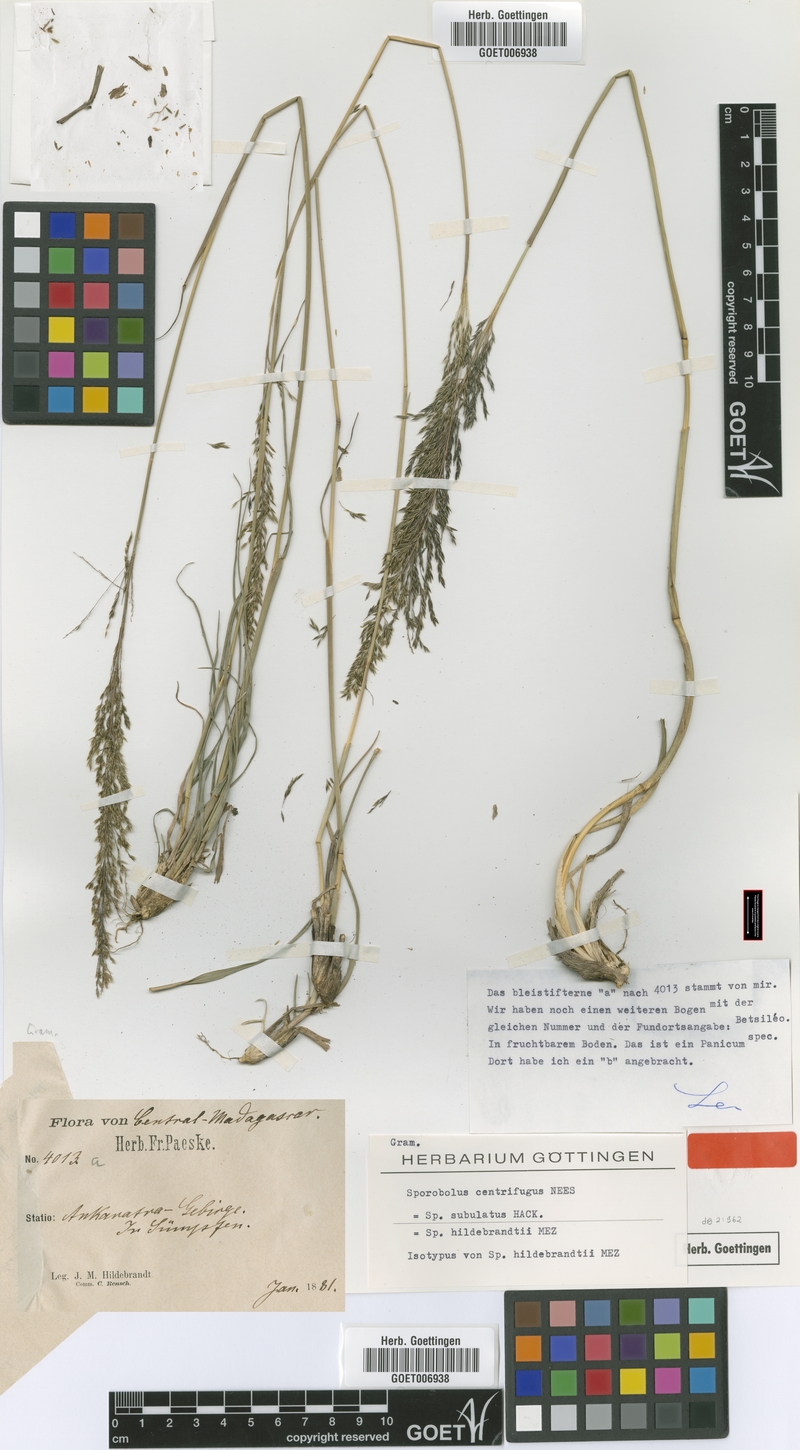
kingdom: Plantae
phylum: Tracheophyta
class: Liliopsida
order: Poales
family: Poaceae
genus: Sporobolus
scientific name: Sporobolus centrifugus
